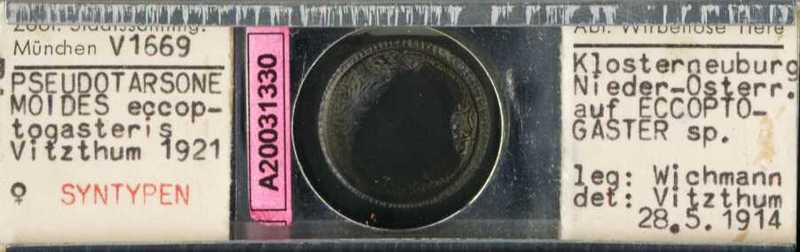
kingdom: Animalia
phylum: Arthropoda
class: Arachnida
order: Trombidiformes
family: Tarsonemidae
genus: Pseudotarsonemoides
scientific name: Pseudotarsonemoides eccoptogasteris
